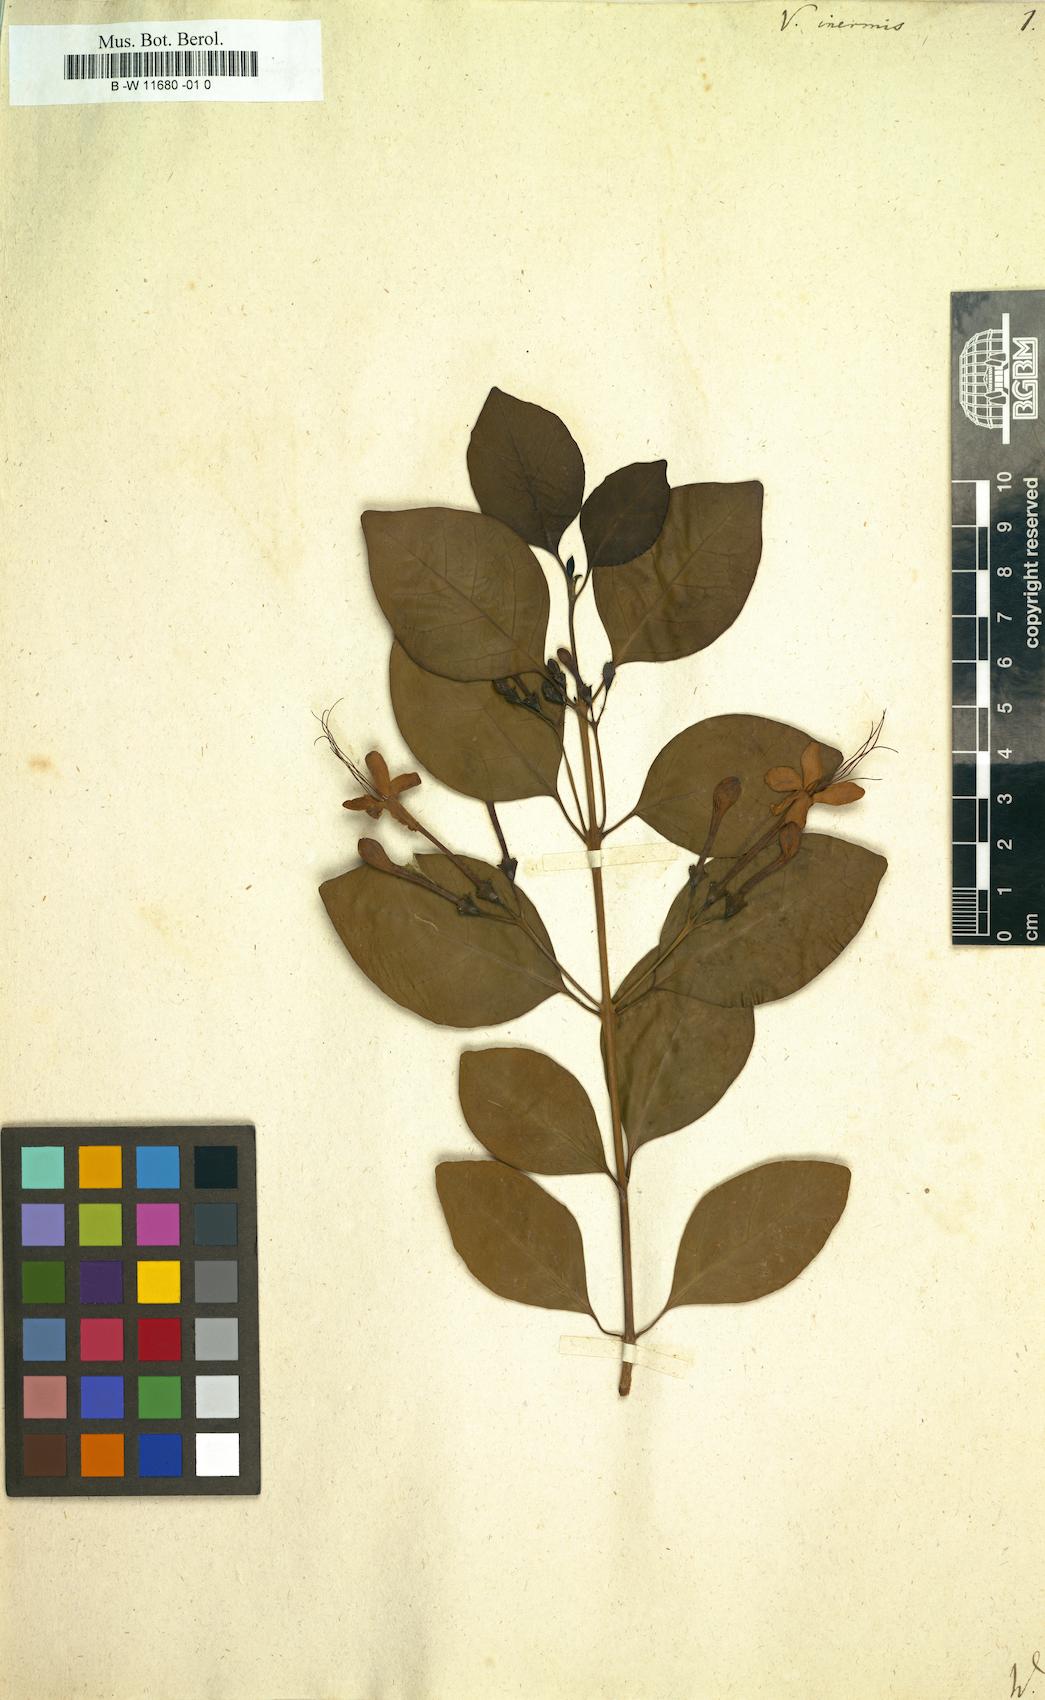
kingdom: Plantae
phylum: Tracheophyta
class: Magnoliopsida
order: Lamiales
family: Lamiaceae
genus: Volkameria
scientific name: Volkameria inermis
